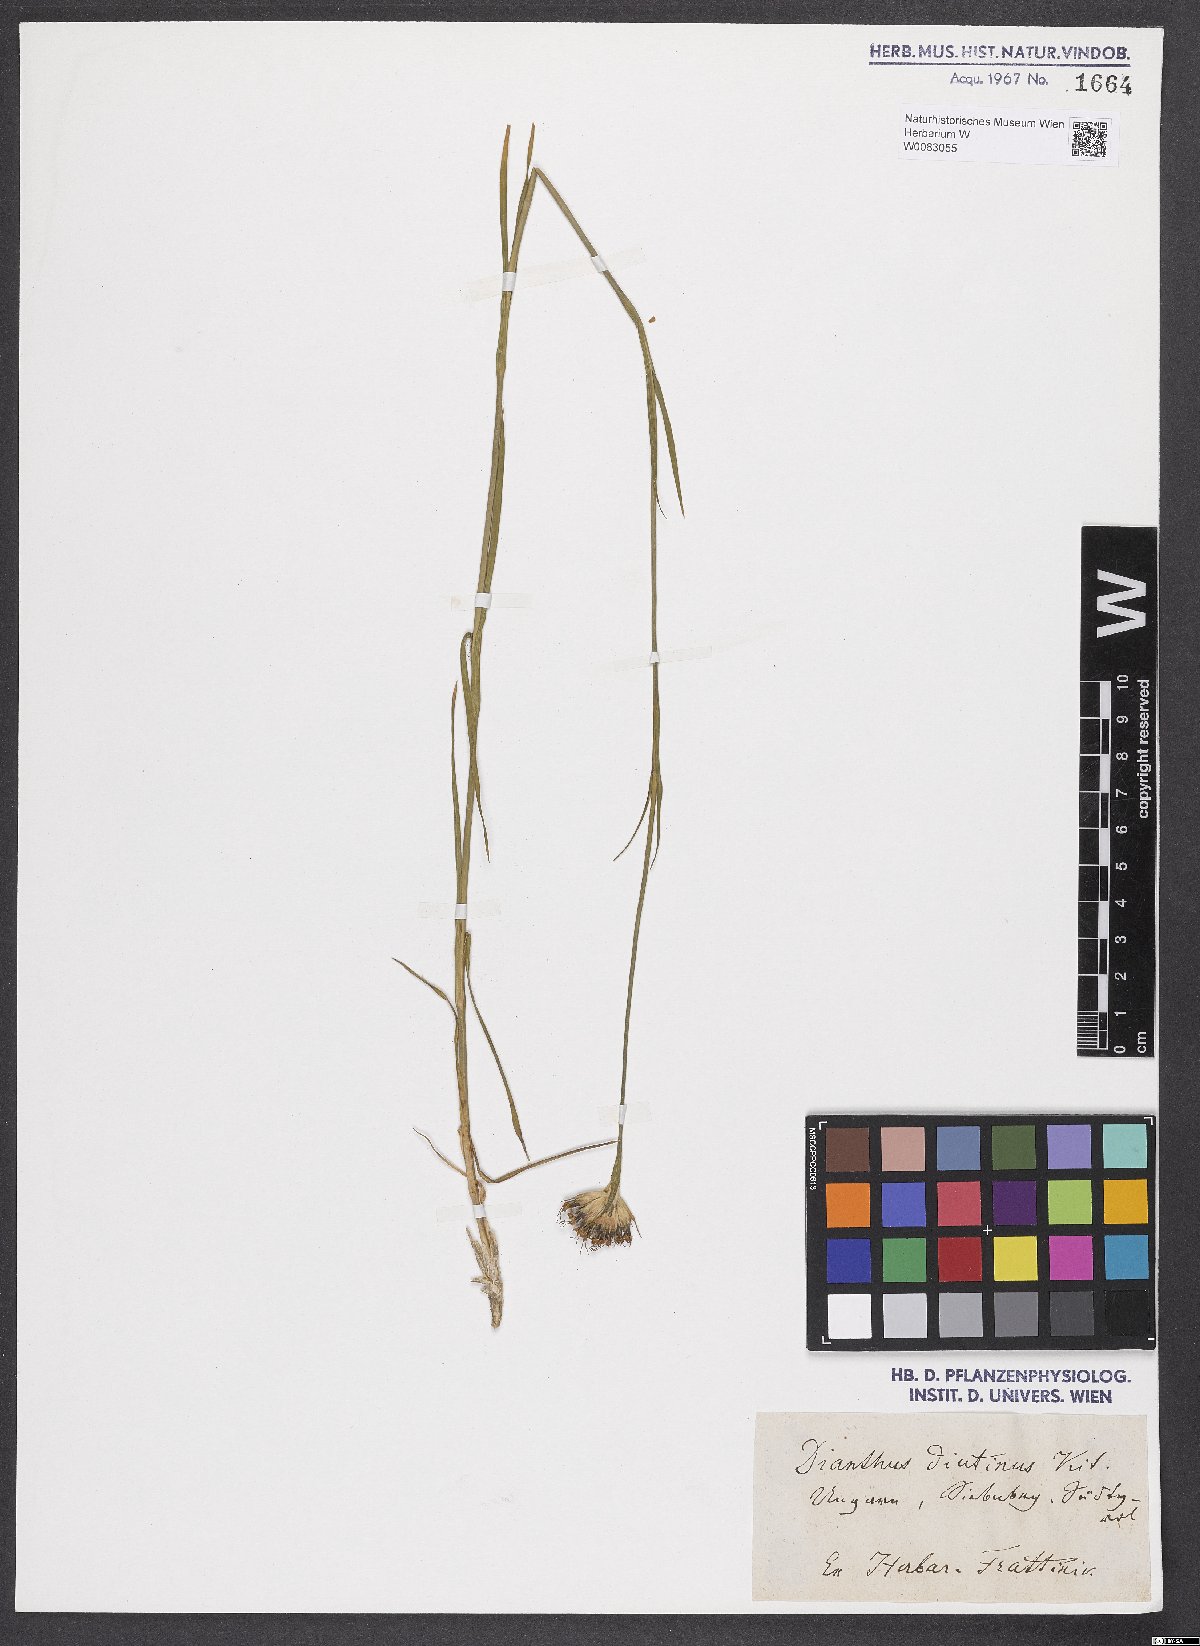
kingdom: Plantae
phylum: Tracheophyta
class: Magnoliopsida
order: Caryophyllales
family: Caryophyllaceae
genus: Dianthus
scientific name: Dianthus polymorphus
